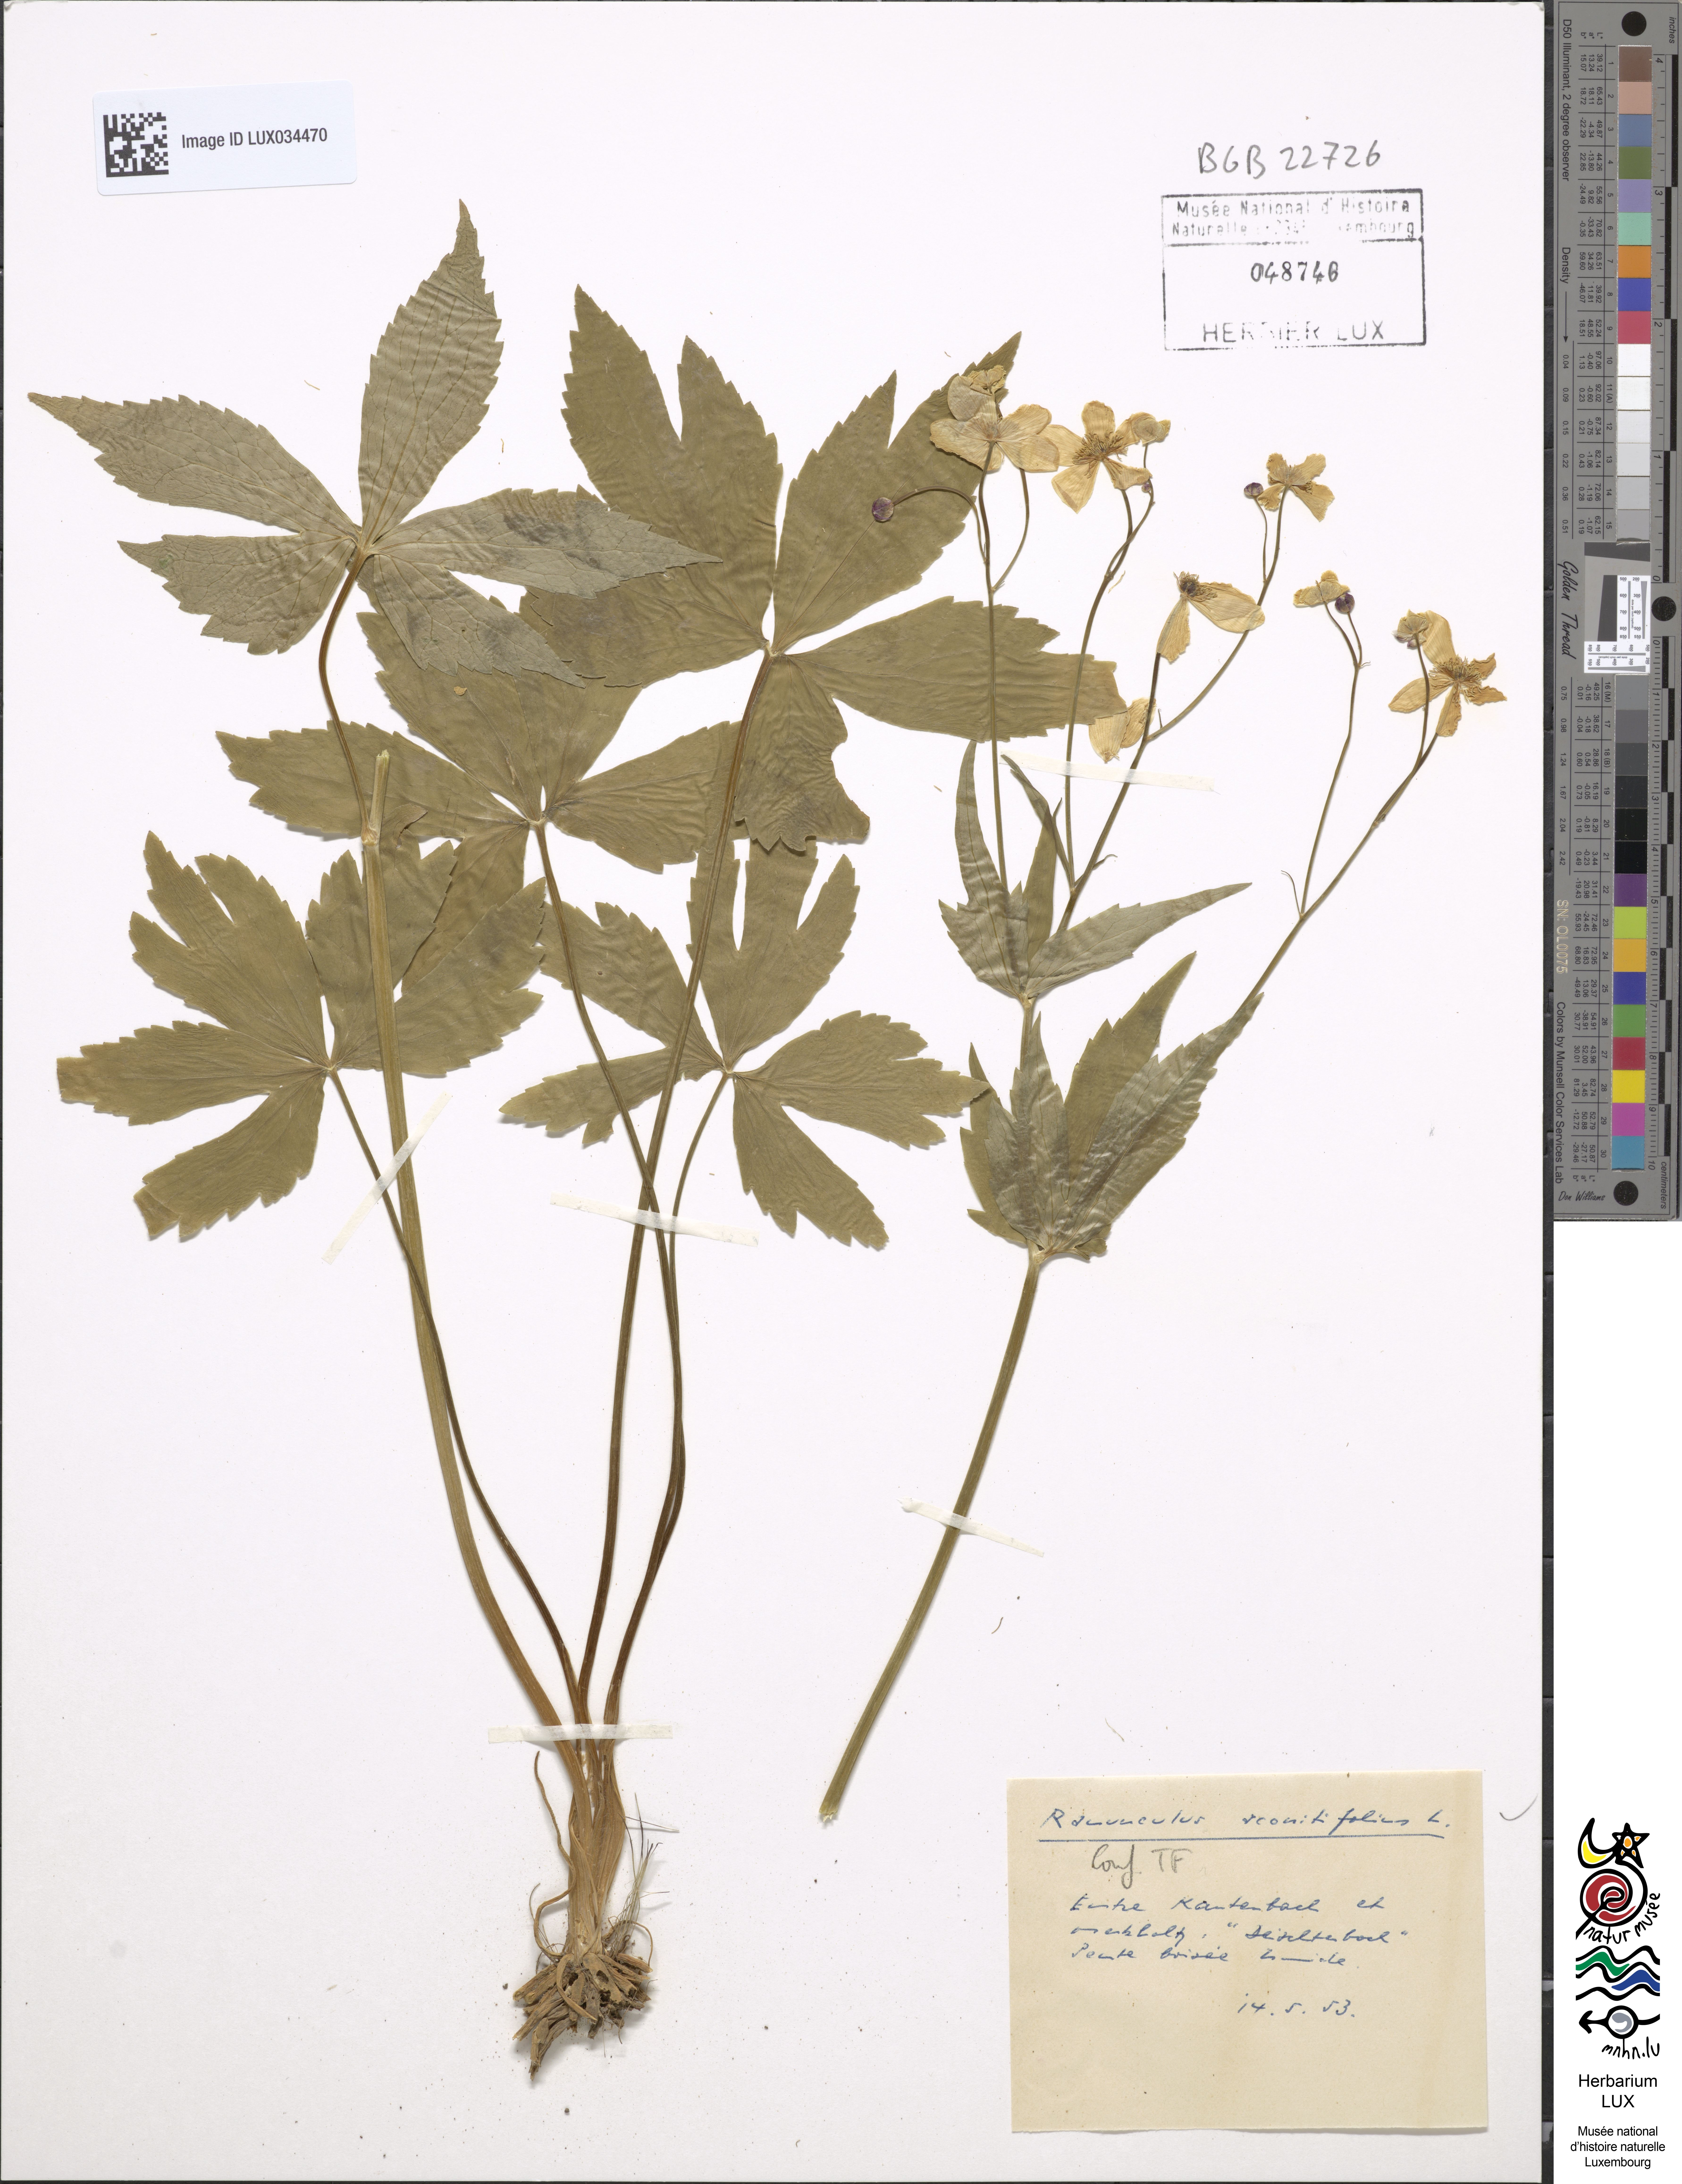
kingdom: Plantae
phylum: Tracheophyta
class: Magnoliopsida
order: Ranunculales
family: Ranunculaceae
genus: Ranunculus
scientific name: Ranunculus aconitifolius
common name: Aconite-leaved buttercup
